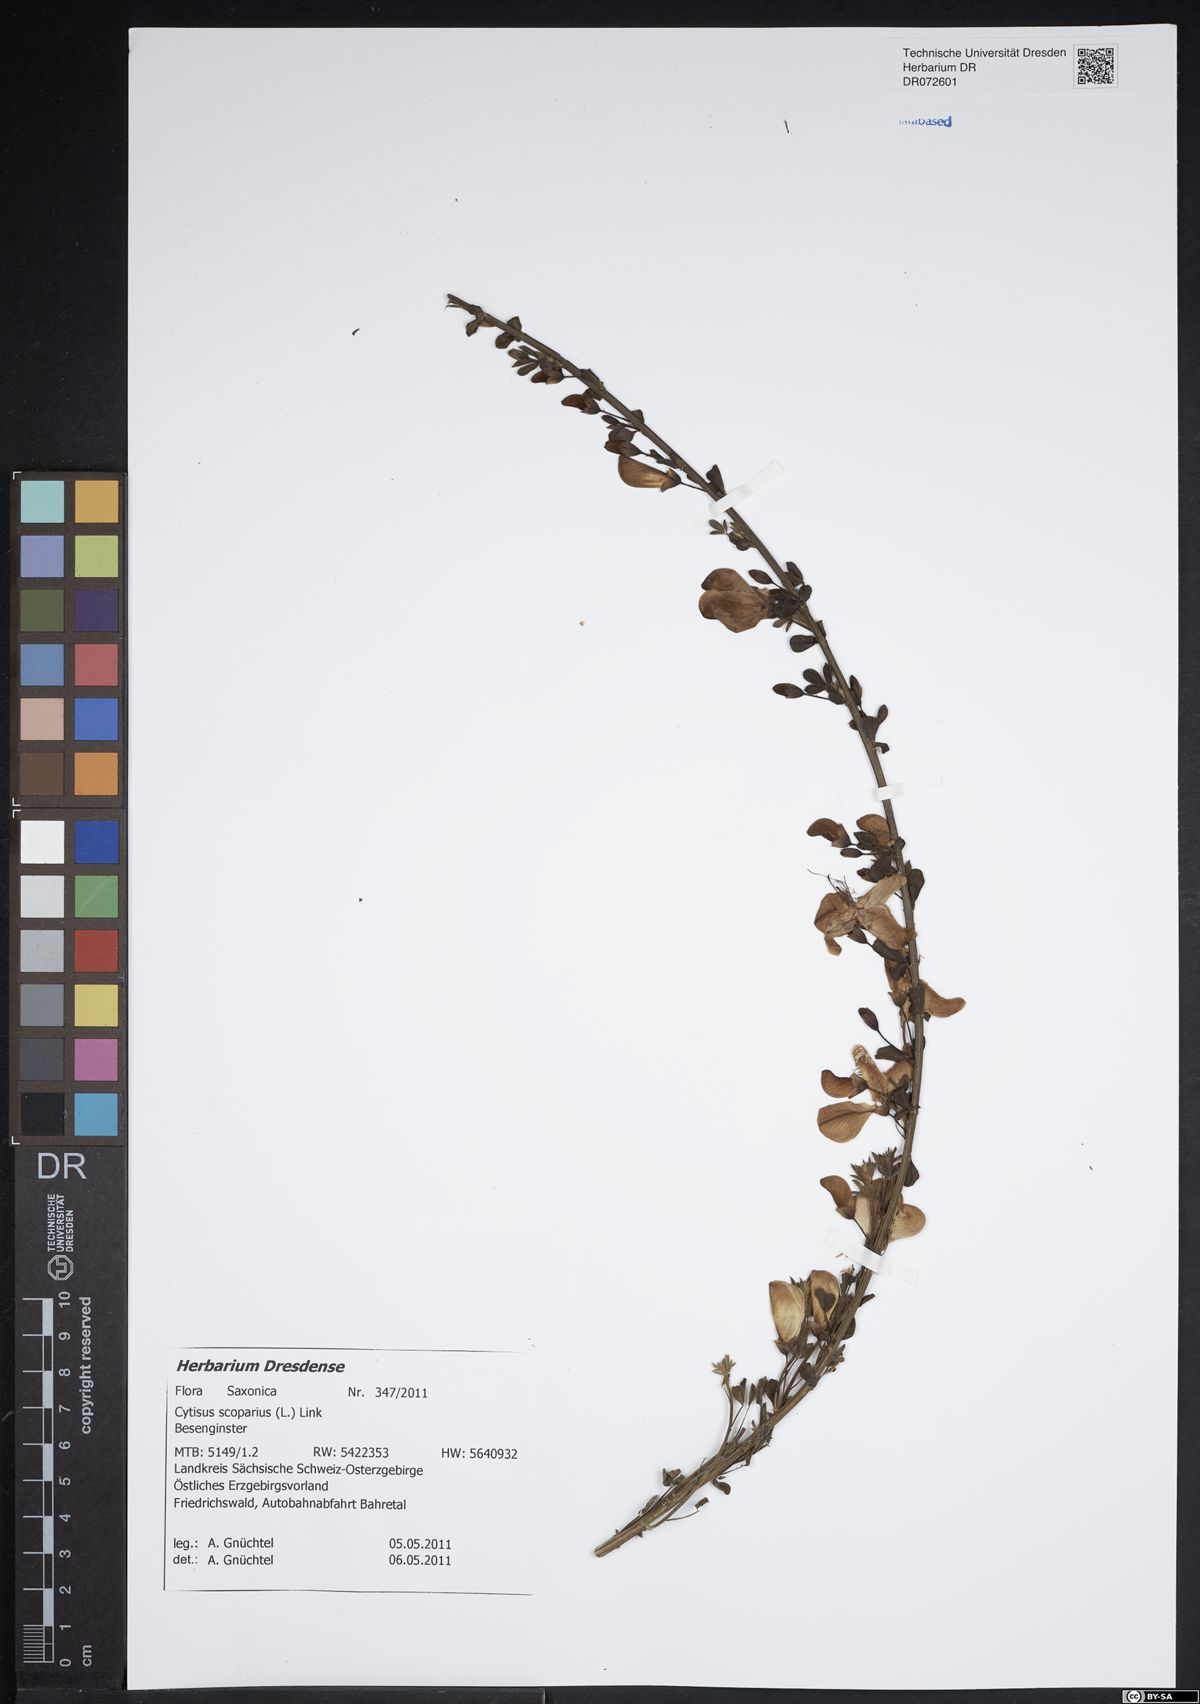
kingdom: Plantae
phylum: Tracheophyta
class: Magnoliopsida
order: Fabales
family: Fabaceae
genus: Cytisus
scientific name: Cytisus scoparius
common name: Scotch broom
